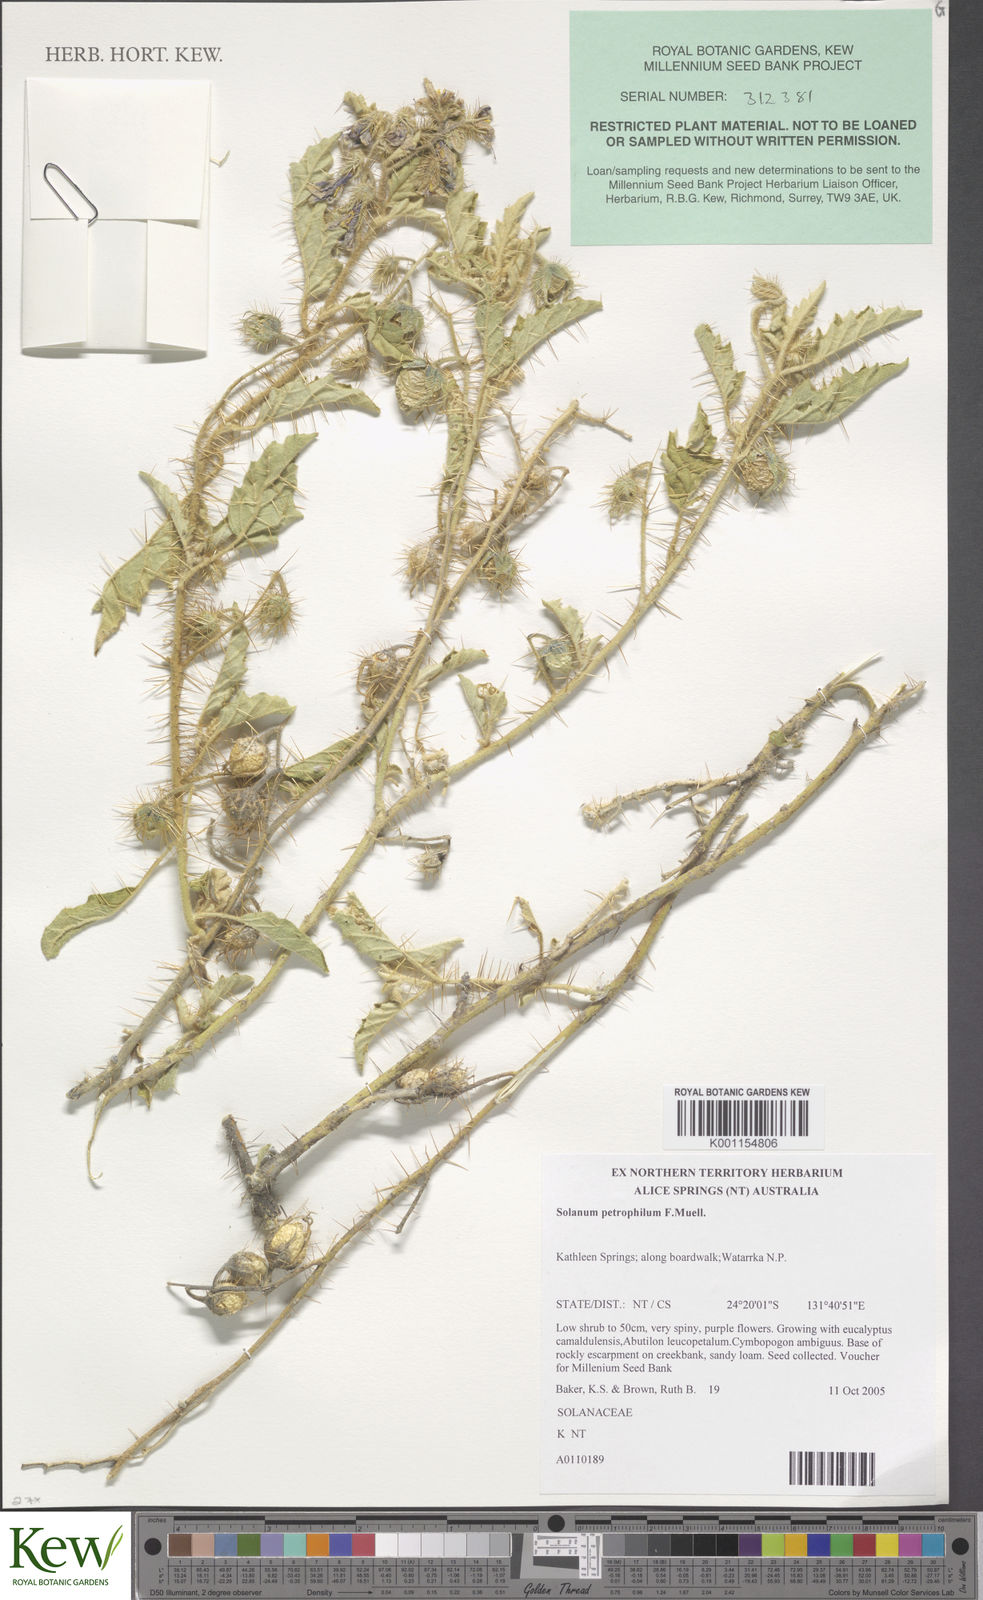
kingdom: Plantae
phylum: Tracheophyta
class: Magnoliopsida
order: Solanales
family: Solanaceae
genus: Solanum
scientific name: Solanum petrophilum
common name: Rock nightshade
